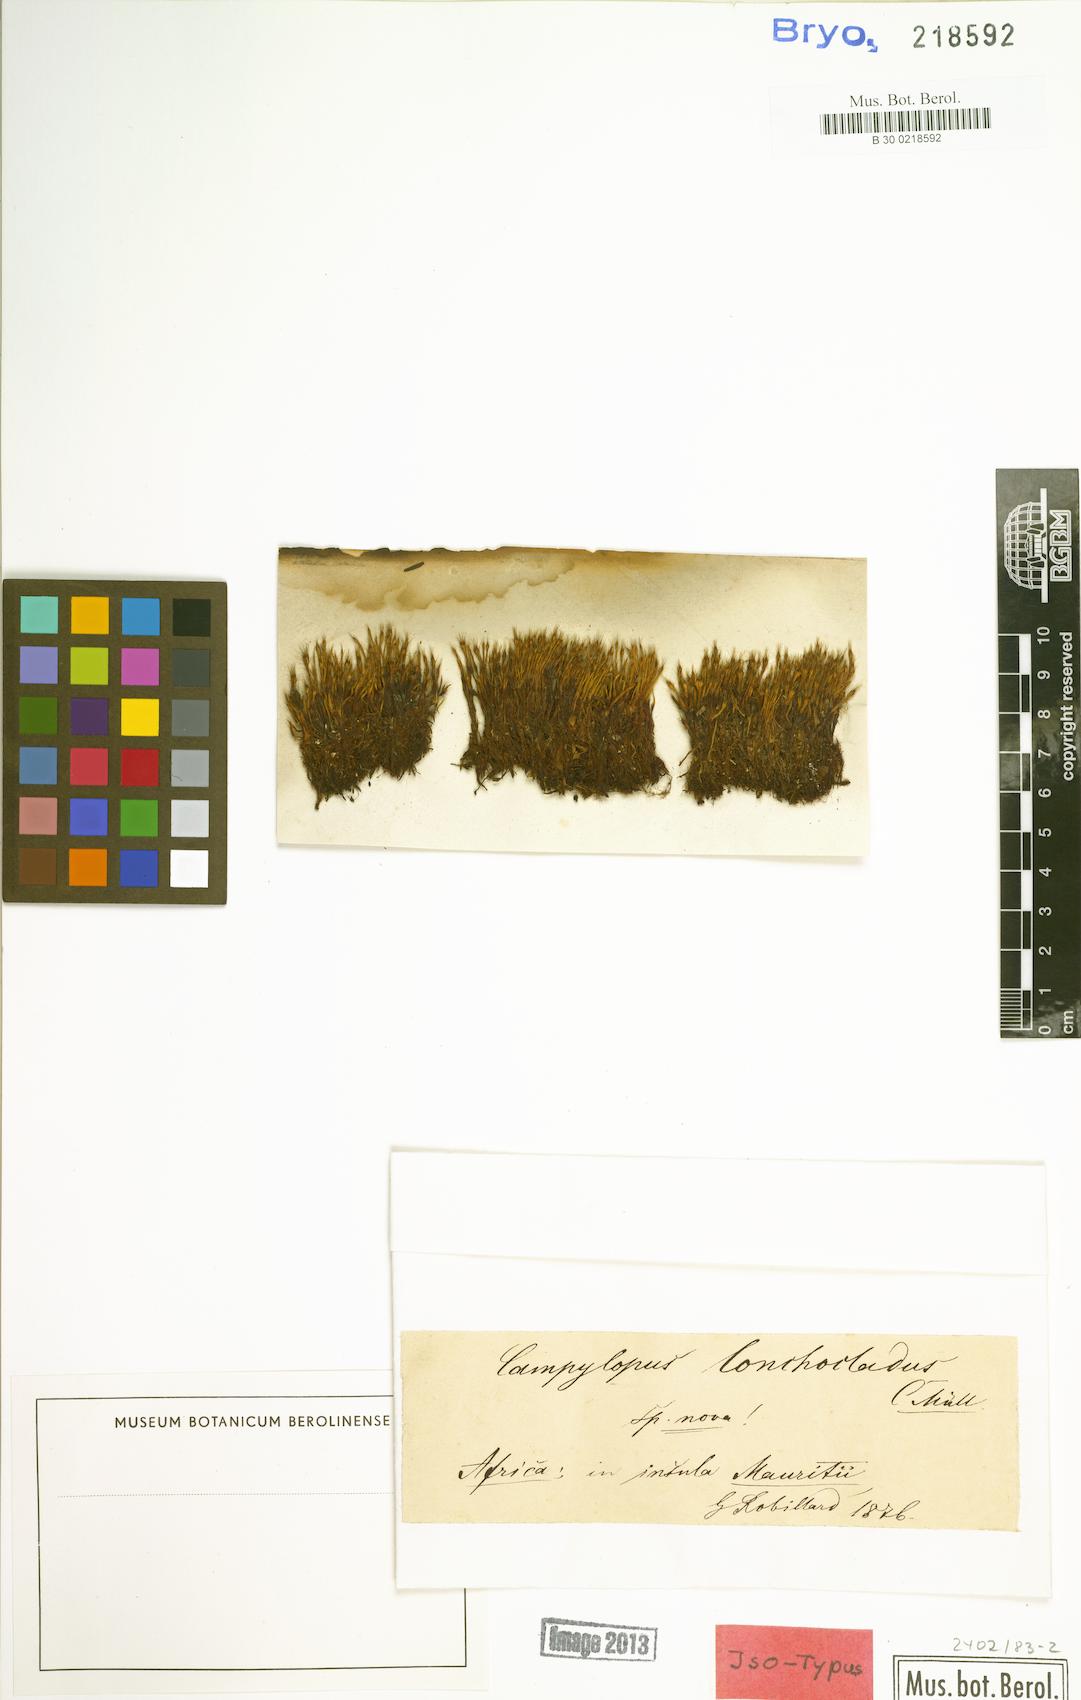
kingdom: Plantae
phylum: Bryophyta
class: Bryopsida
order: Dicranales
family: Leucobryaceae
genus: Campylopus
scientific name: Campylopus aureonitens
